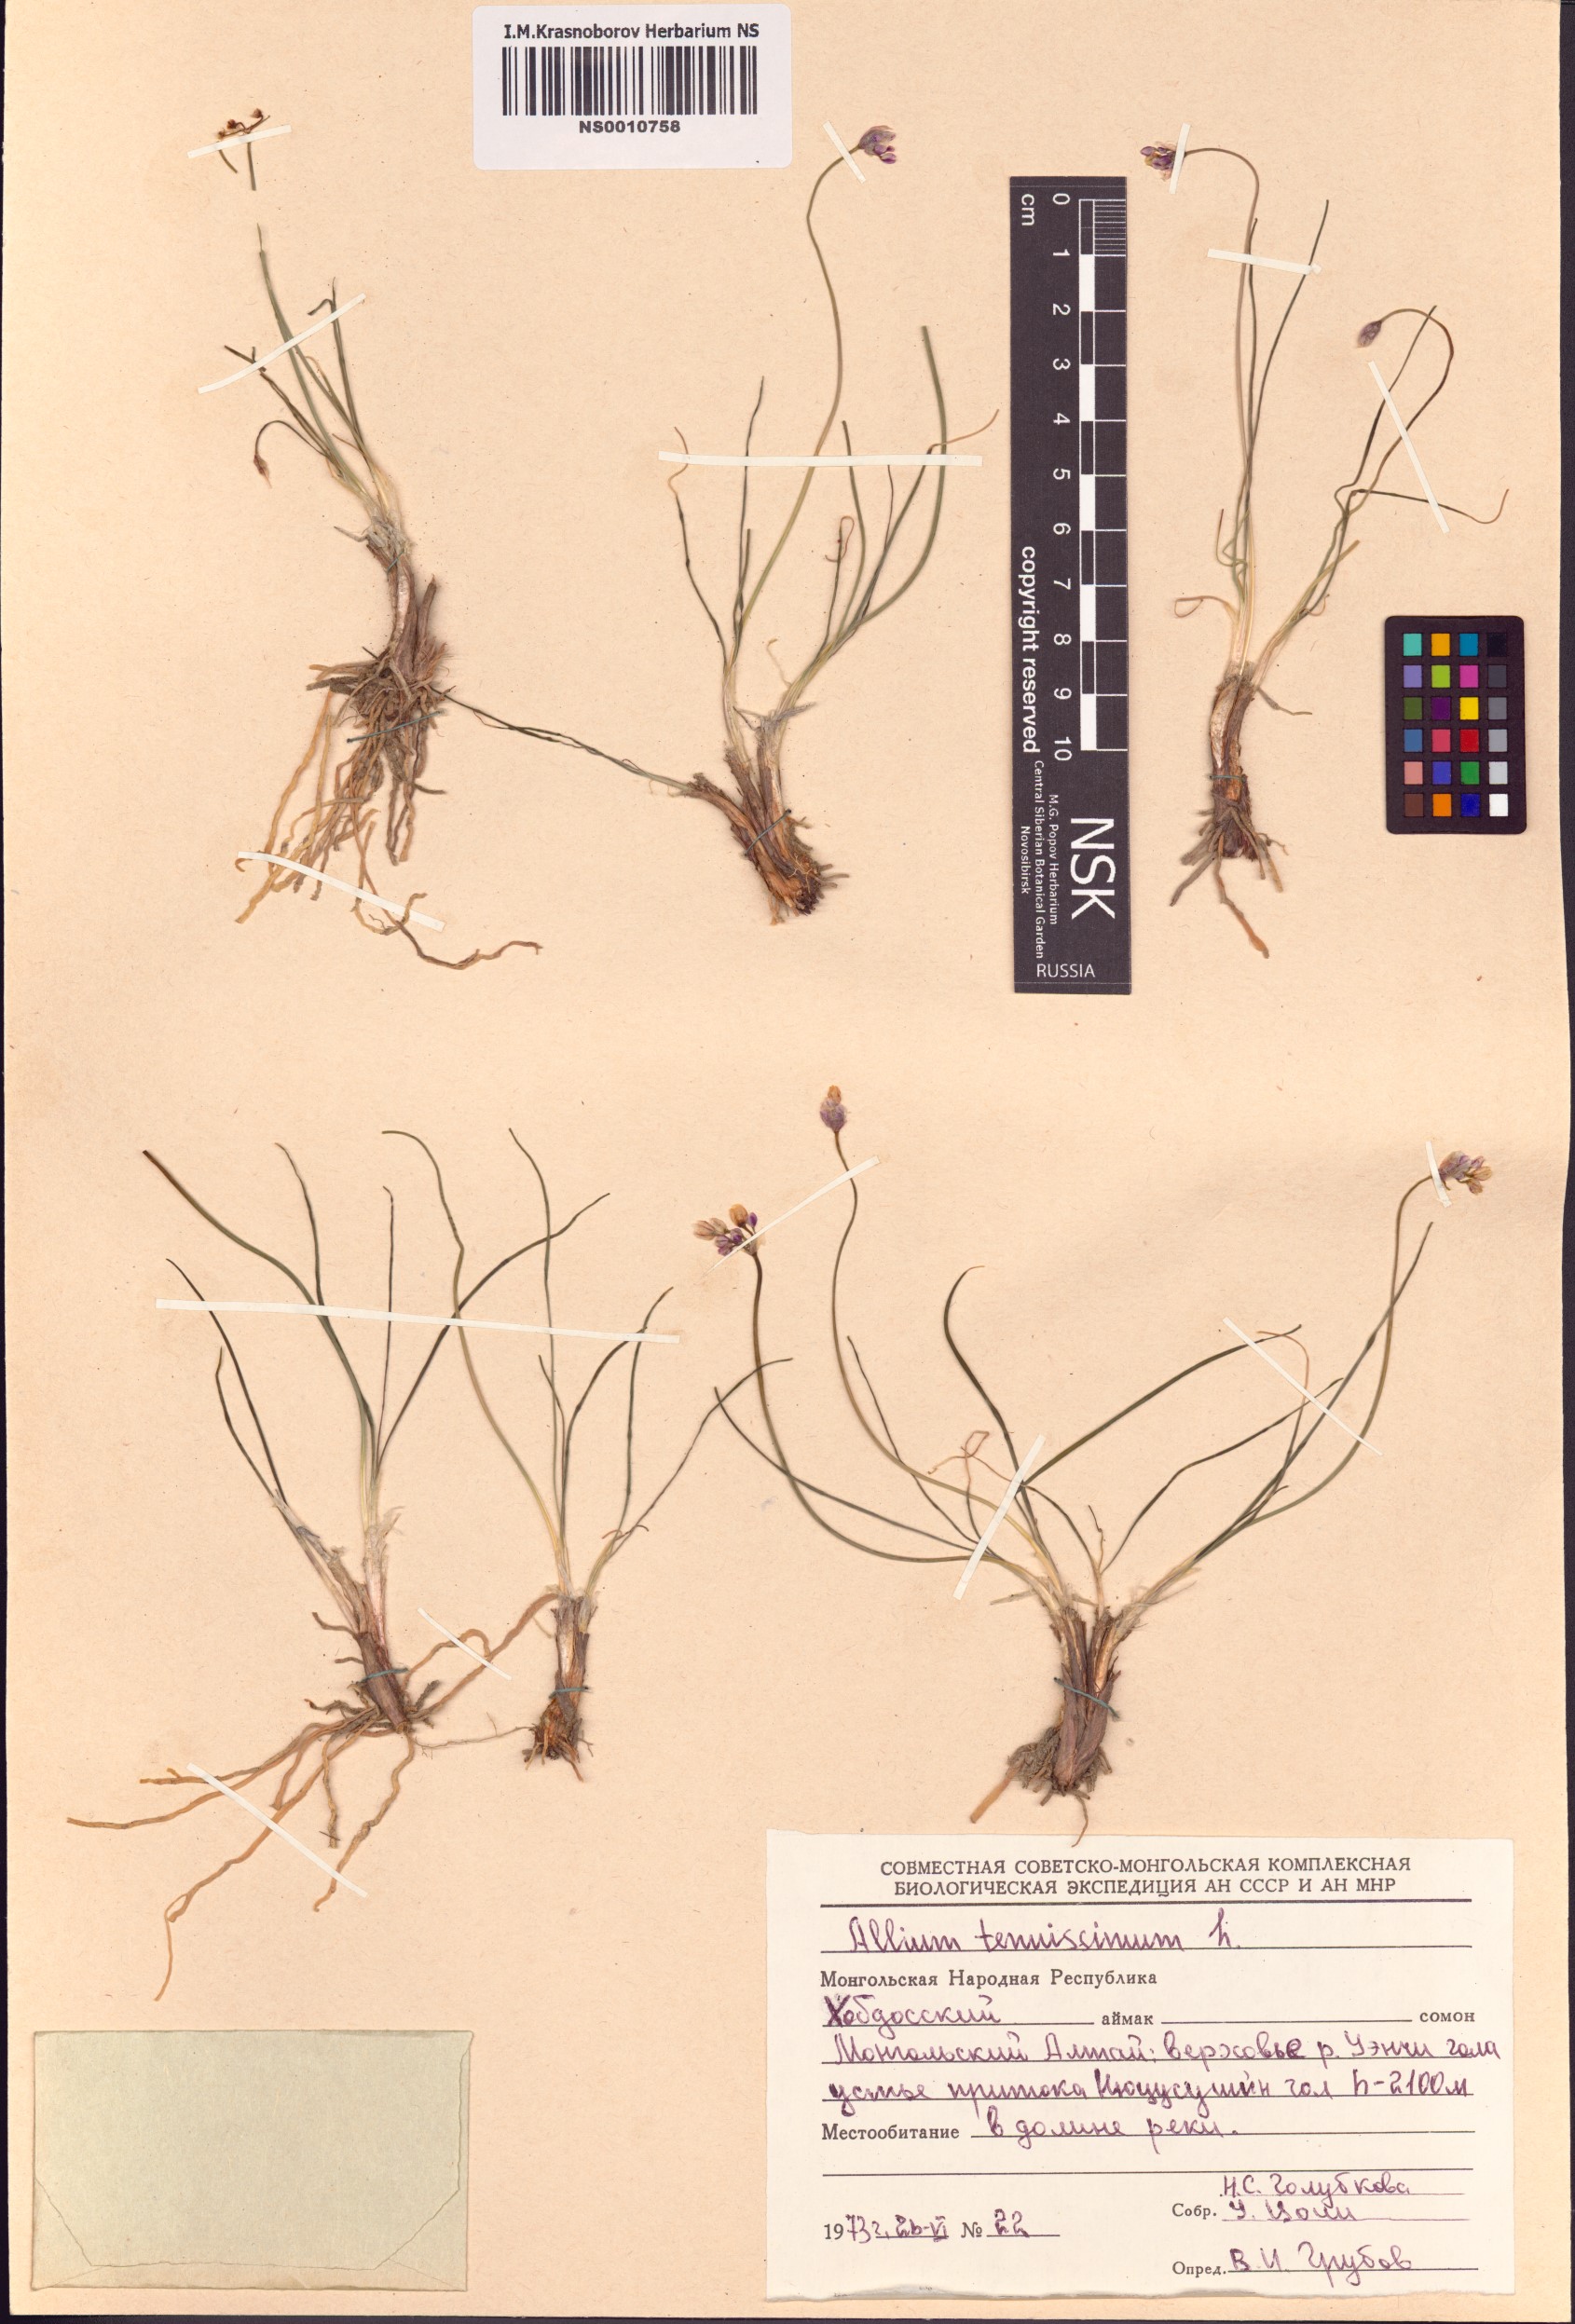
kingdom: Plantae
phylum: Tracheophyta
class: Liliopsida
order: Asparagales
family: Amaryllidaceae
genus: Allium
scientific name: Allium tenuissimum
